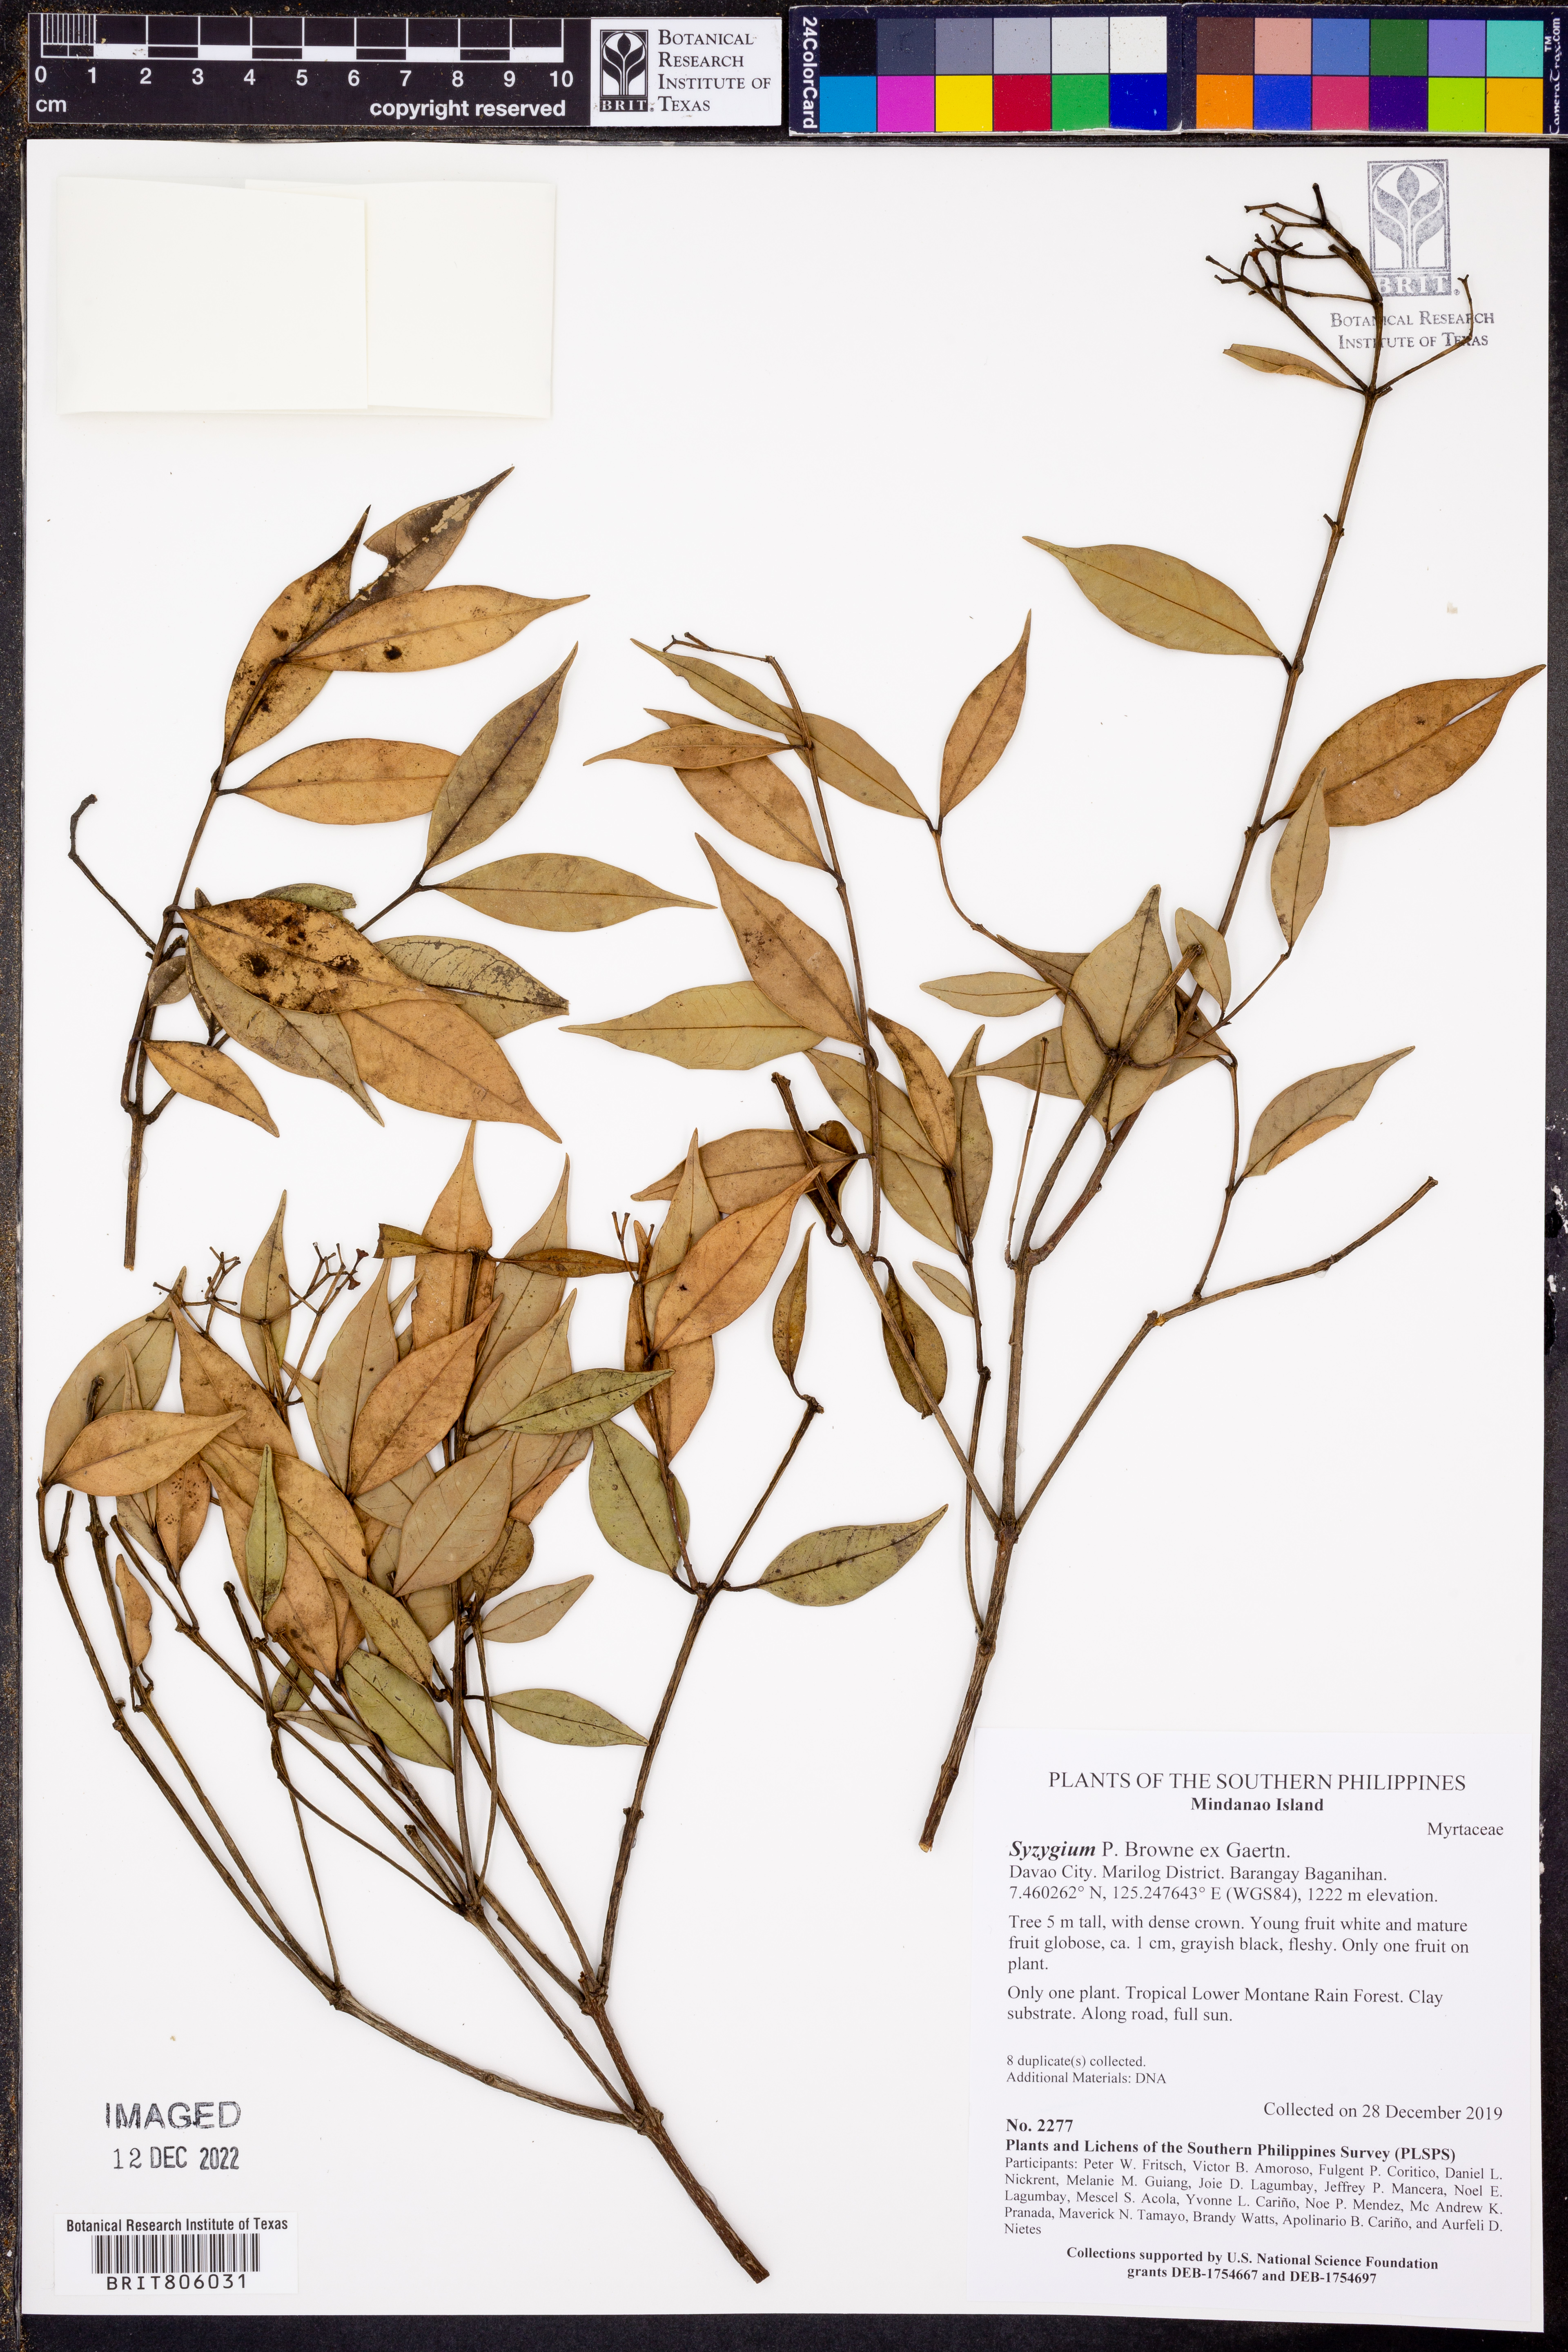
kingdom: Plantae
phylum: Tracheophyta
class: Magnoliopsida
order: Myrtales
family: Myrtaceae
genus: Syzygium
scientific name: Syzygium
